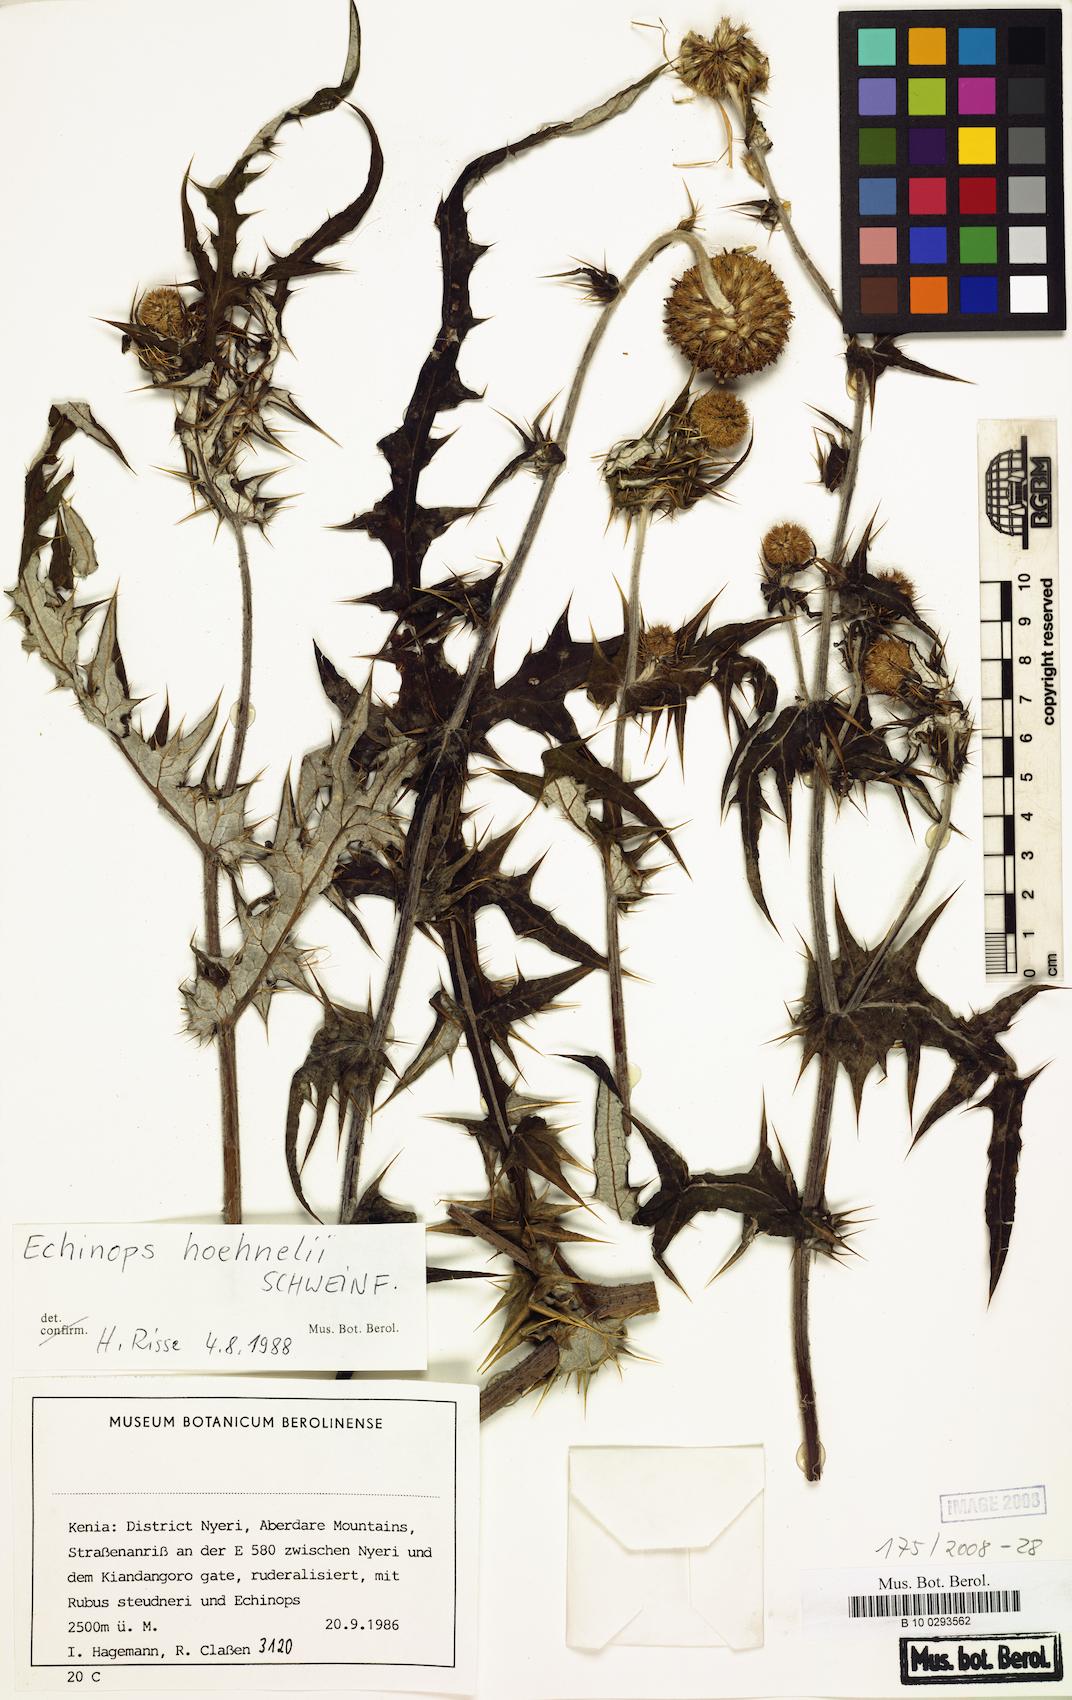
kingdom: Plantae
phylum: Tracheophyta
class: Magnoliopsida
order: Asterales
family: Asteraceae
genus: Echinops
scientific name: Echinops hoehnelii
